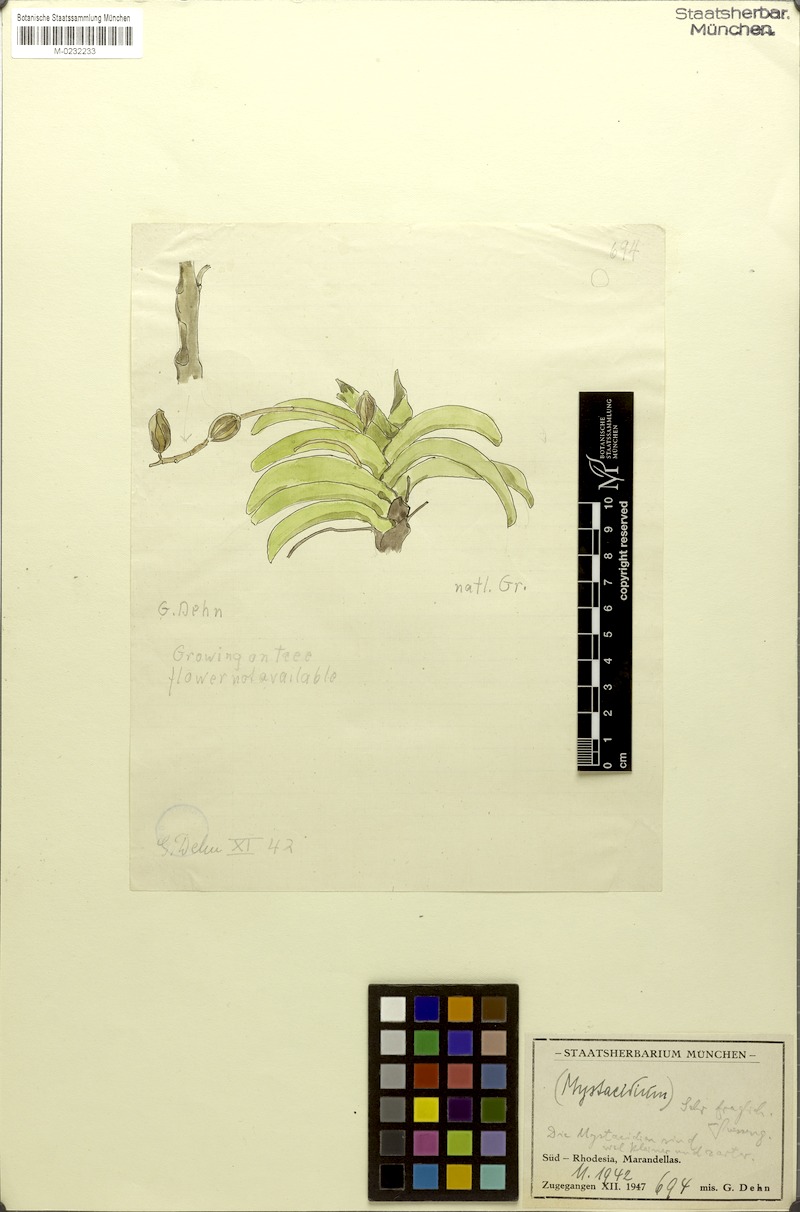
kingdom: Plantae
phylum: Tracheophyta
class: Liliopsida
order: Asparagales
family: Orchidaceae
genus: Mystacidium
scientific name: Mystacidium
